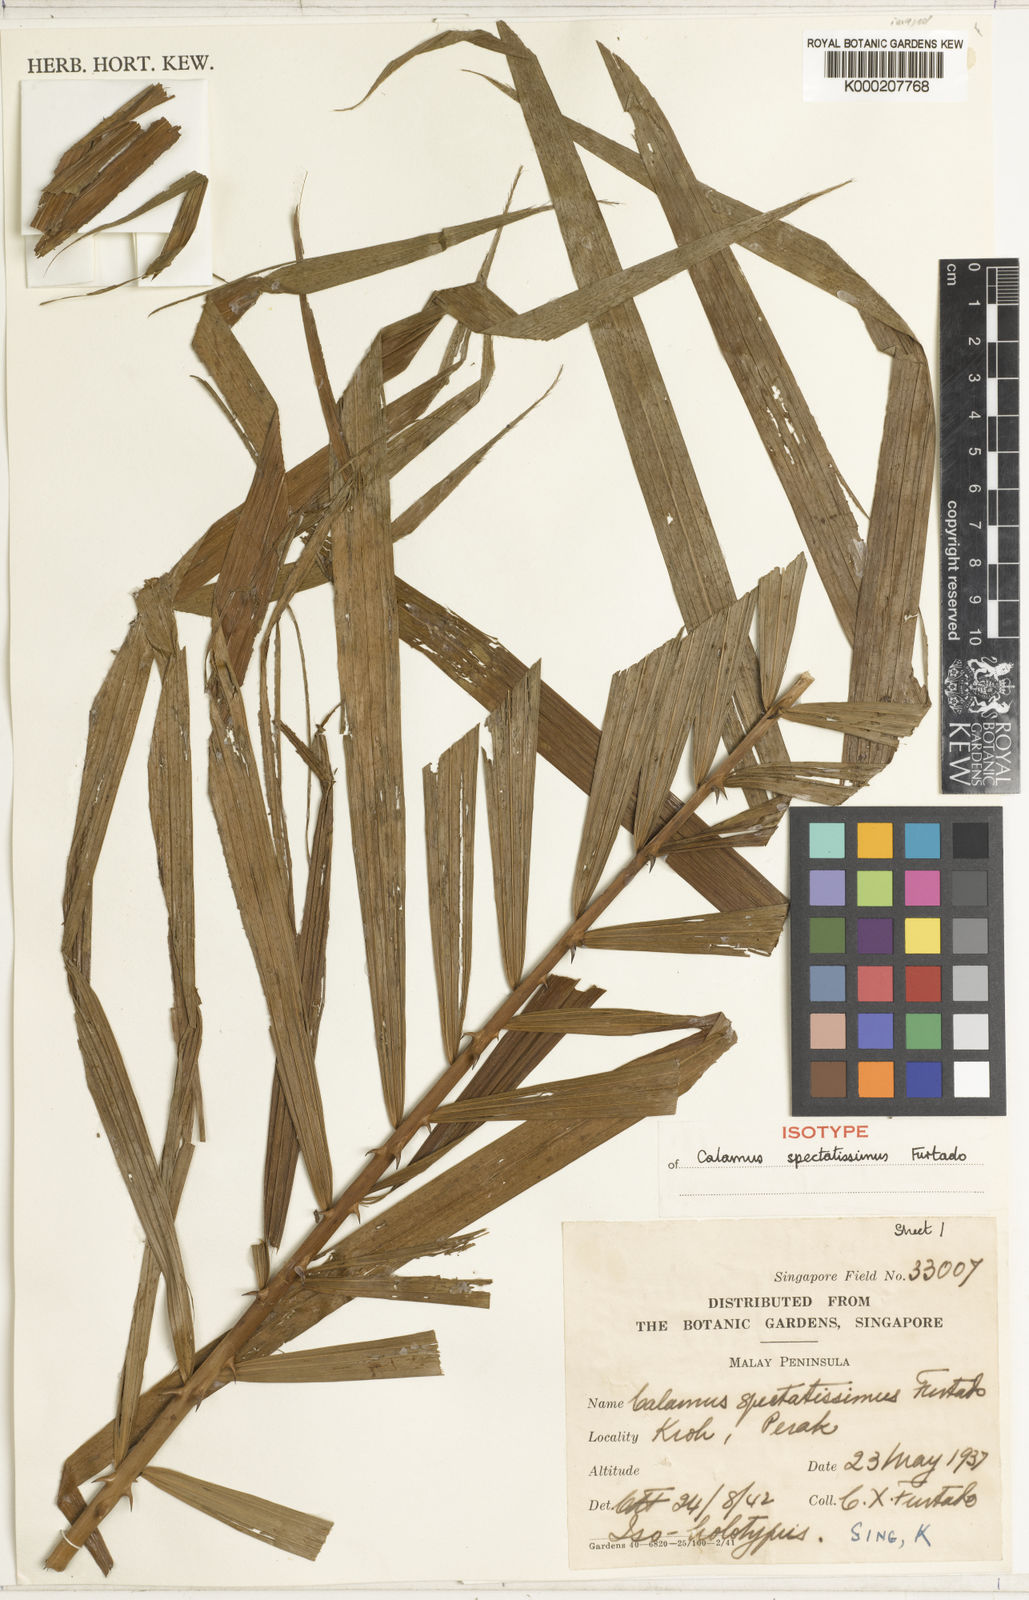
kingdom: Plantae
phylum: Tracheophyta
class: Liliopsida
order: Arecales
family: Arecaceae
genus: Calamus
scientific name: Calamus spectatissimus
